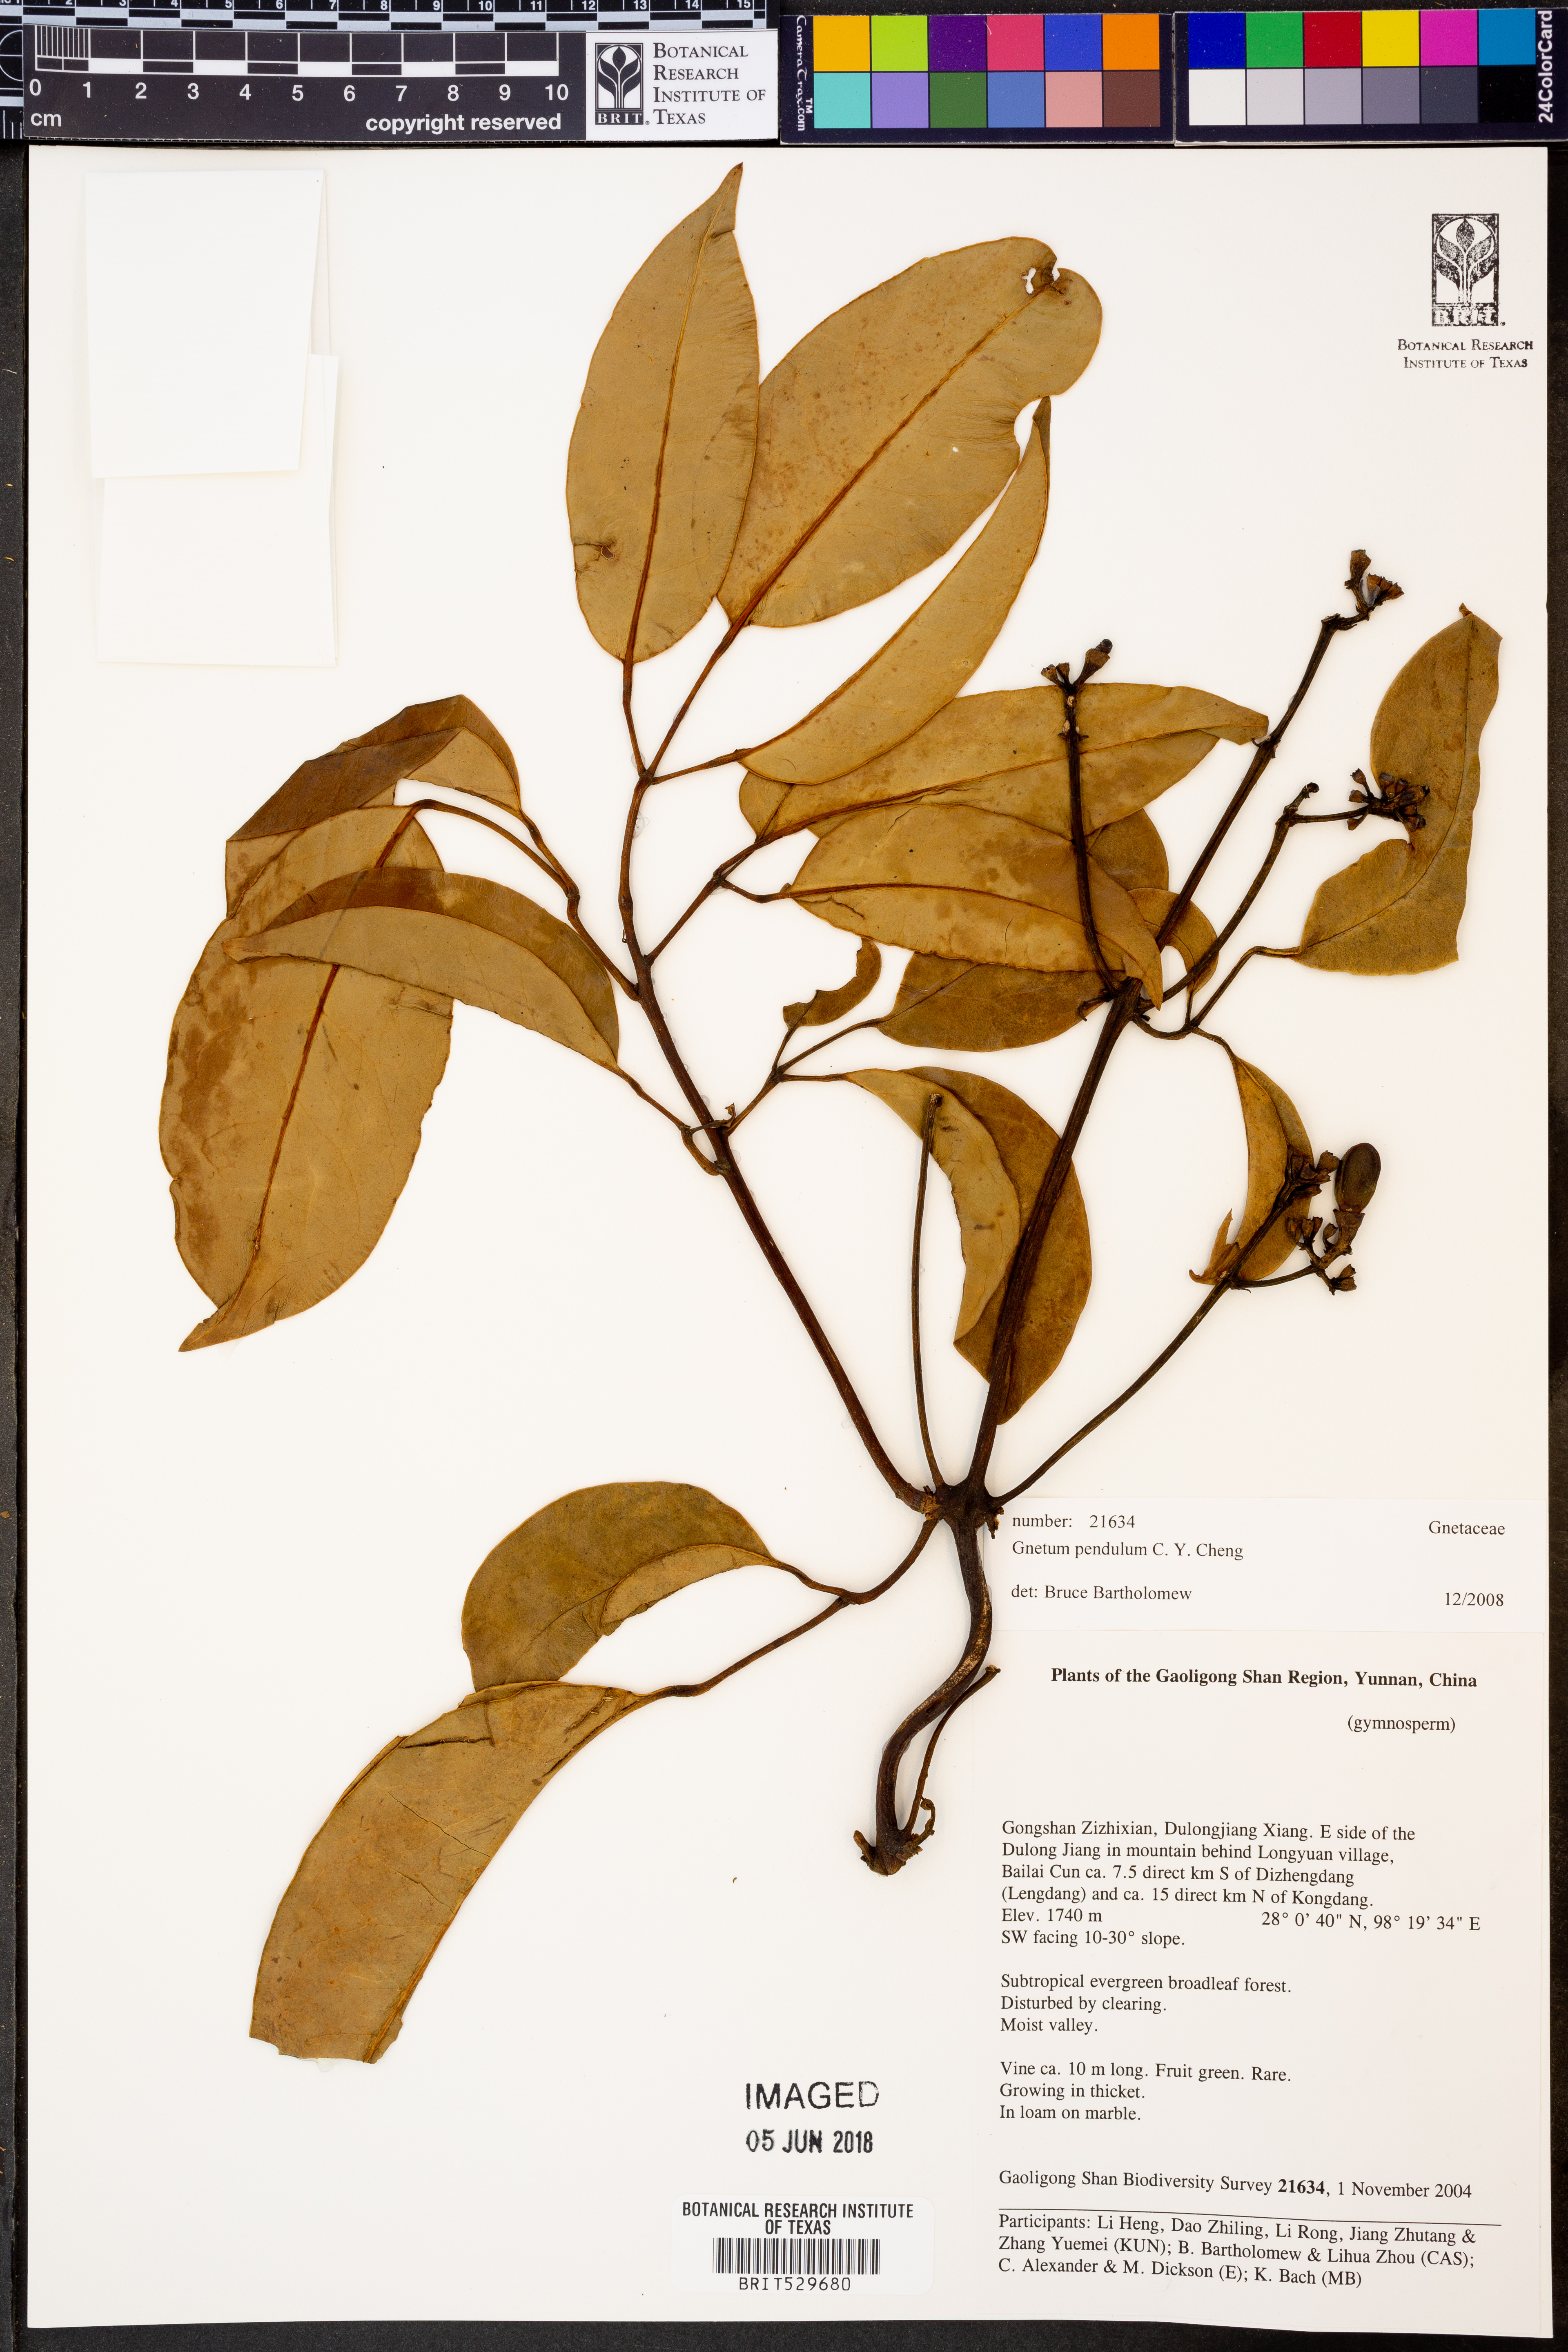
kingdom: Plantae
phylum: Tracheophyta
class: Gnetopsida
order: Gnetales
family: Gnetaceae
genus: Gnetum
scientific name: Gnetum pendulum
